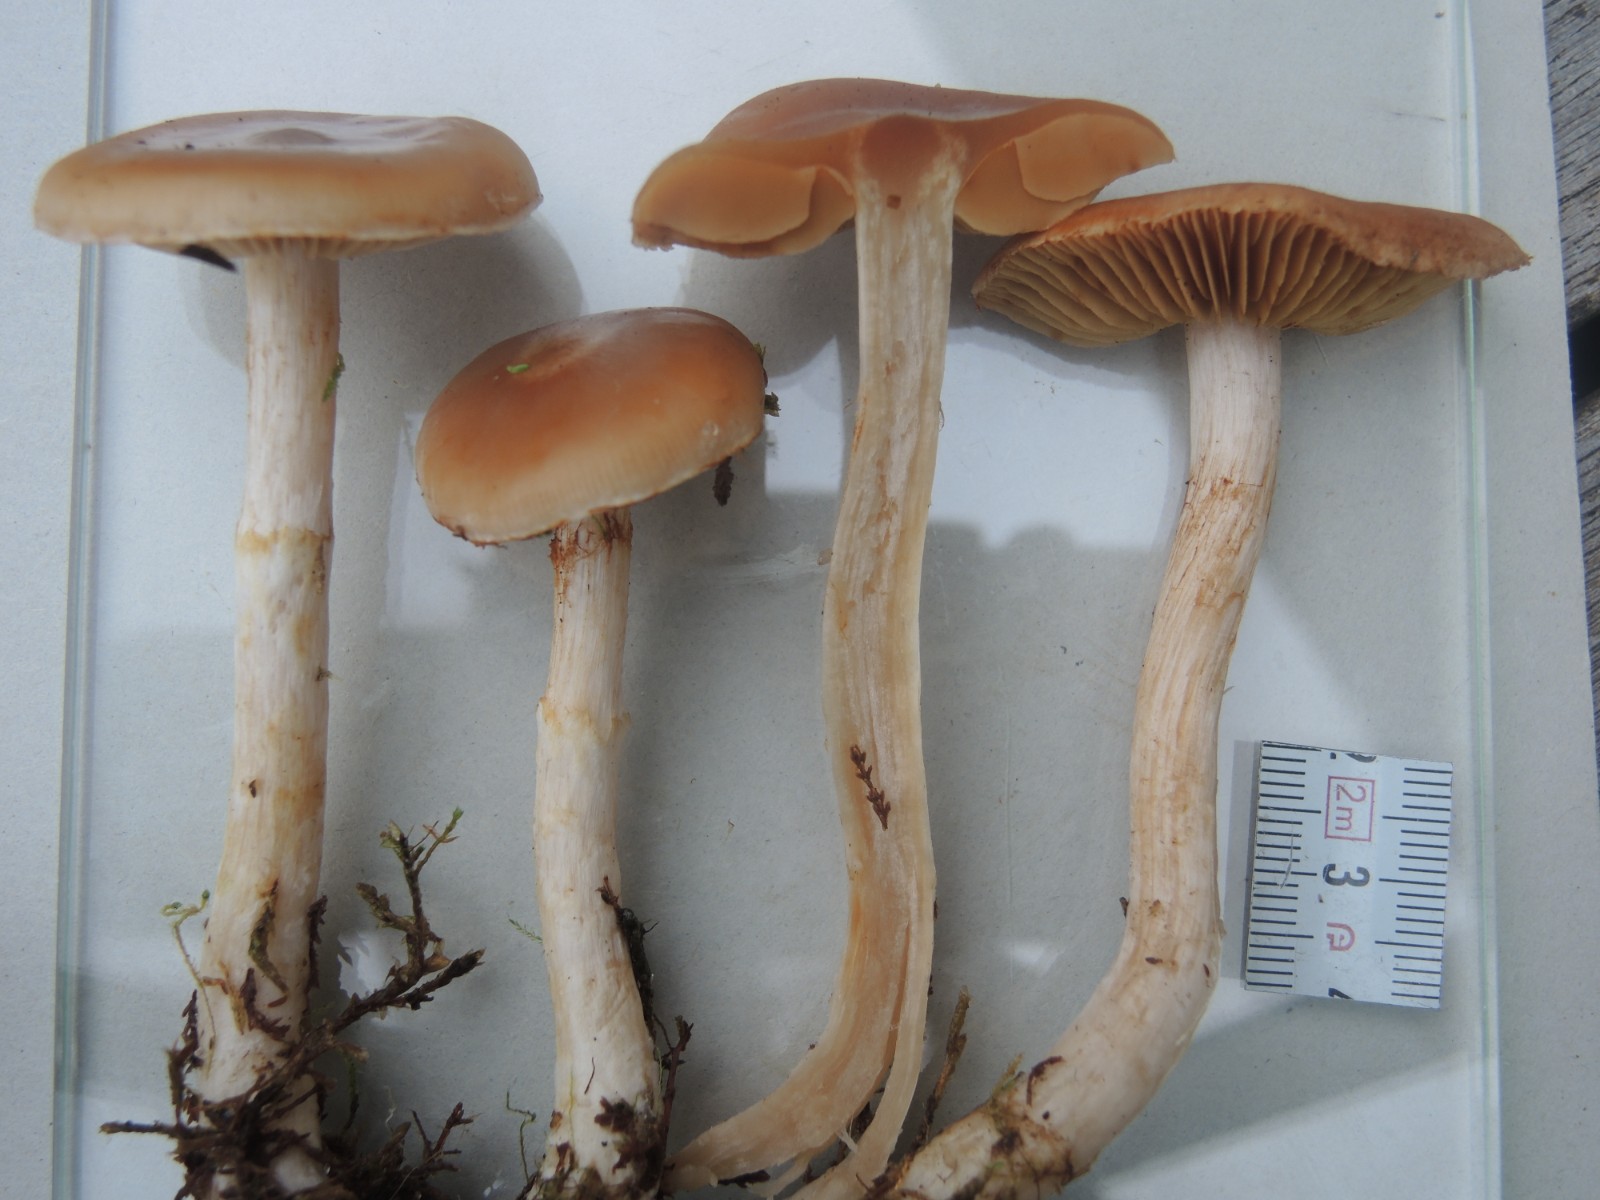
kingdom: Fungi
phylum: Basidiomycota
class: Agaricomycetes
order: Agaricales
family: Cortinariaceae
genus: Cortinarius
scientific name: Cortinarius circinans
